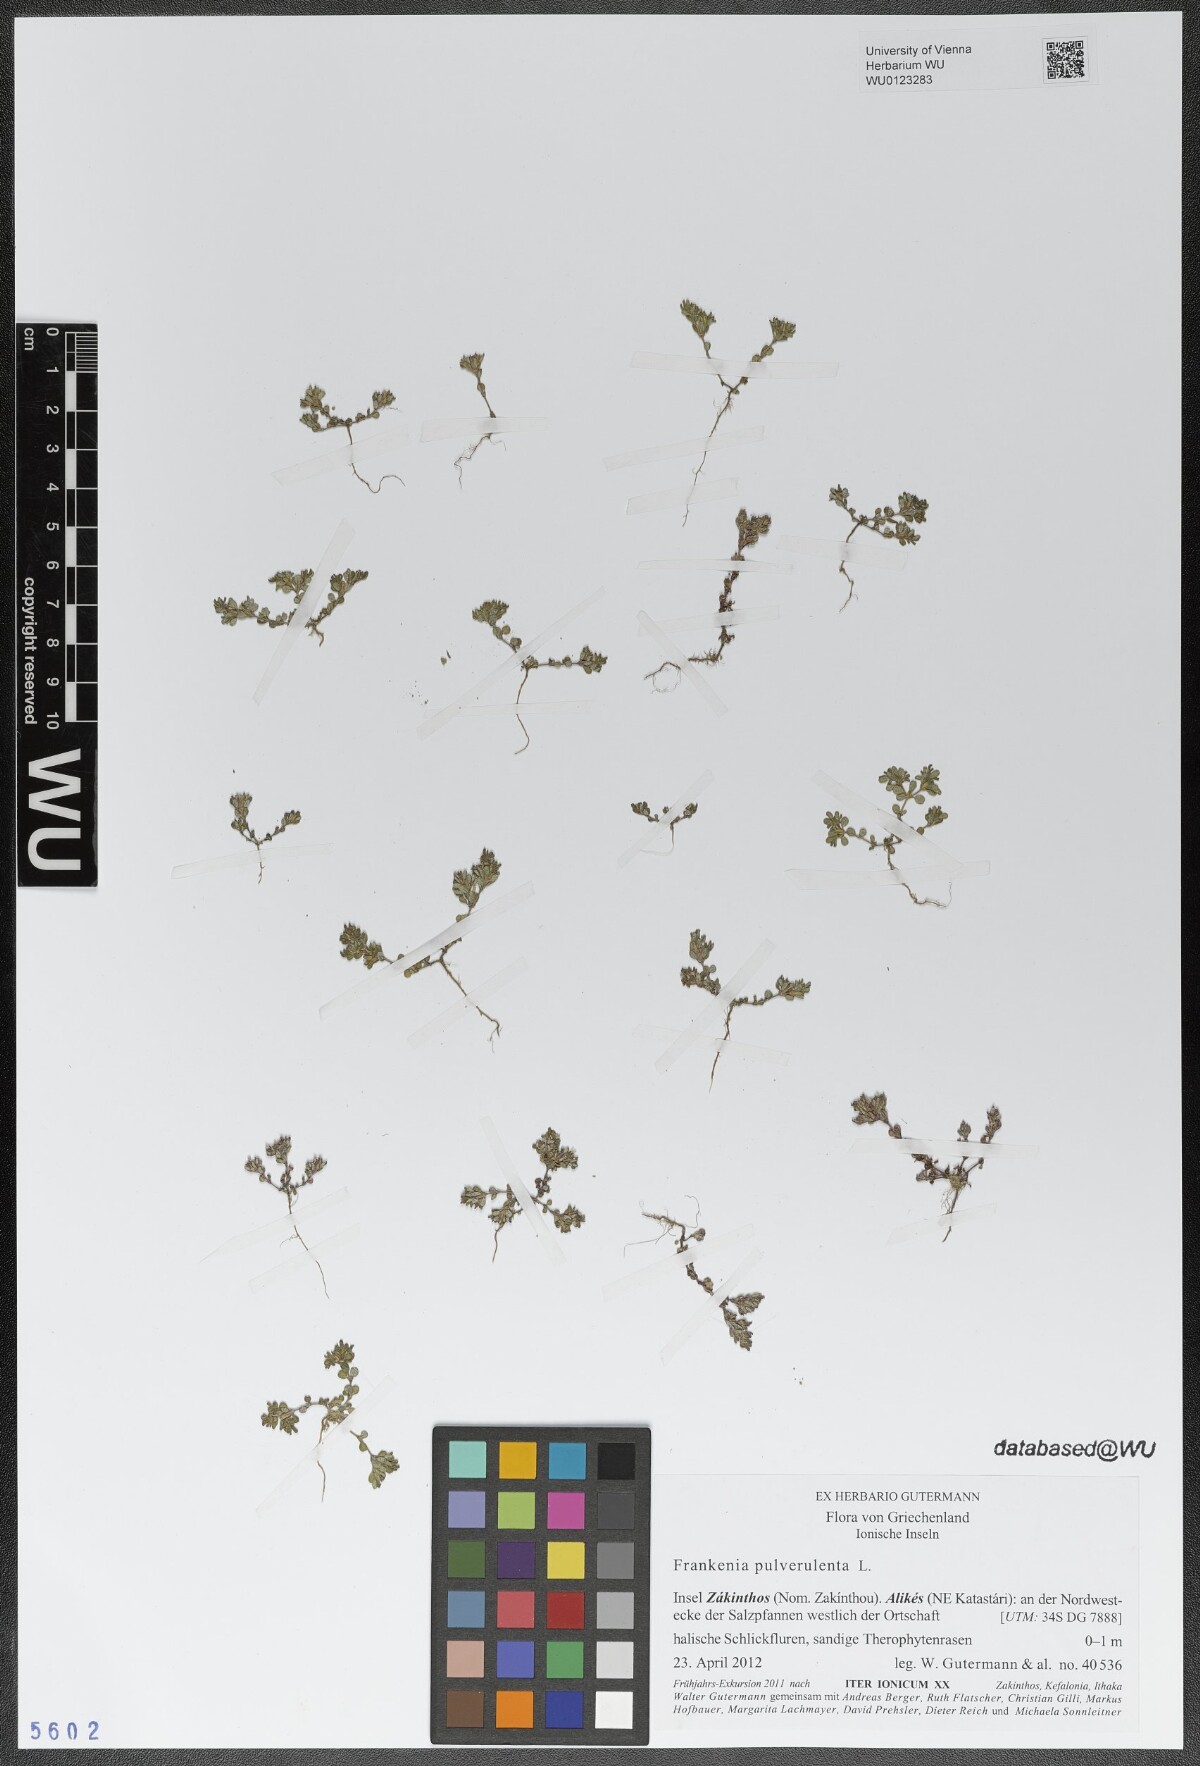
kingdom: Plantae
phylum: Tracheophyta
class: Magnoliopsida
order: Caryophyllales
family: Frankeniaceae
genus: Frankenia
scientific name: Frankenia pulverulenta
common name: European seaheath
